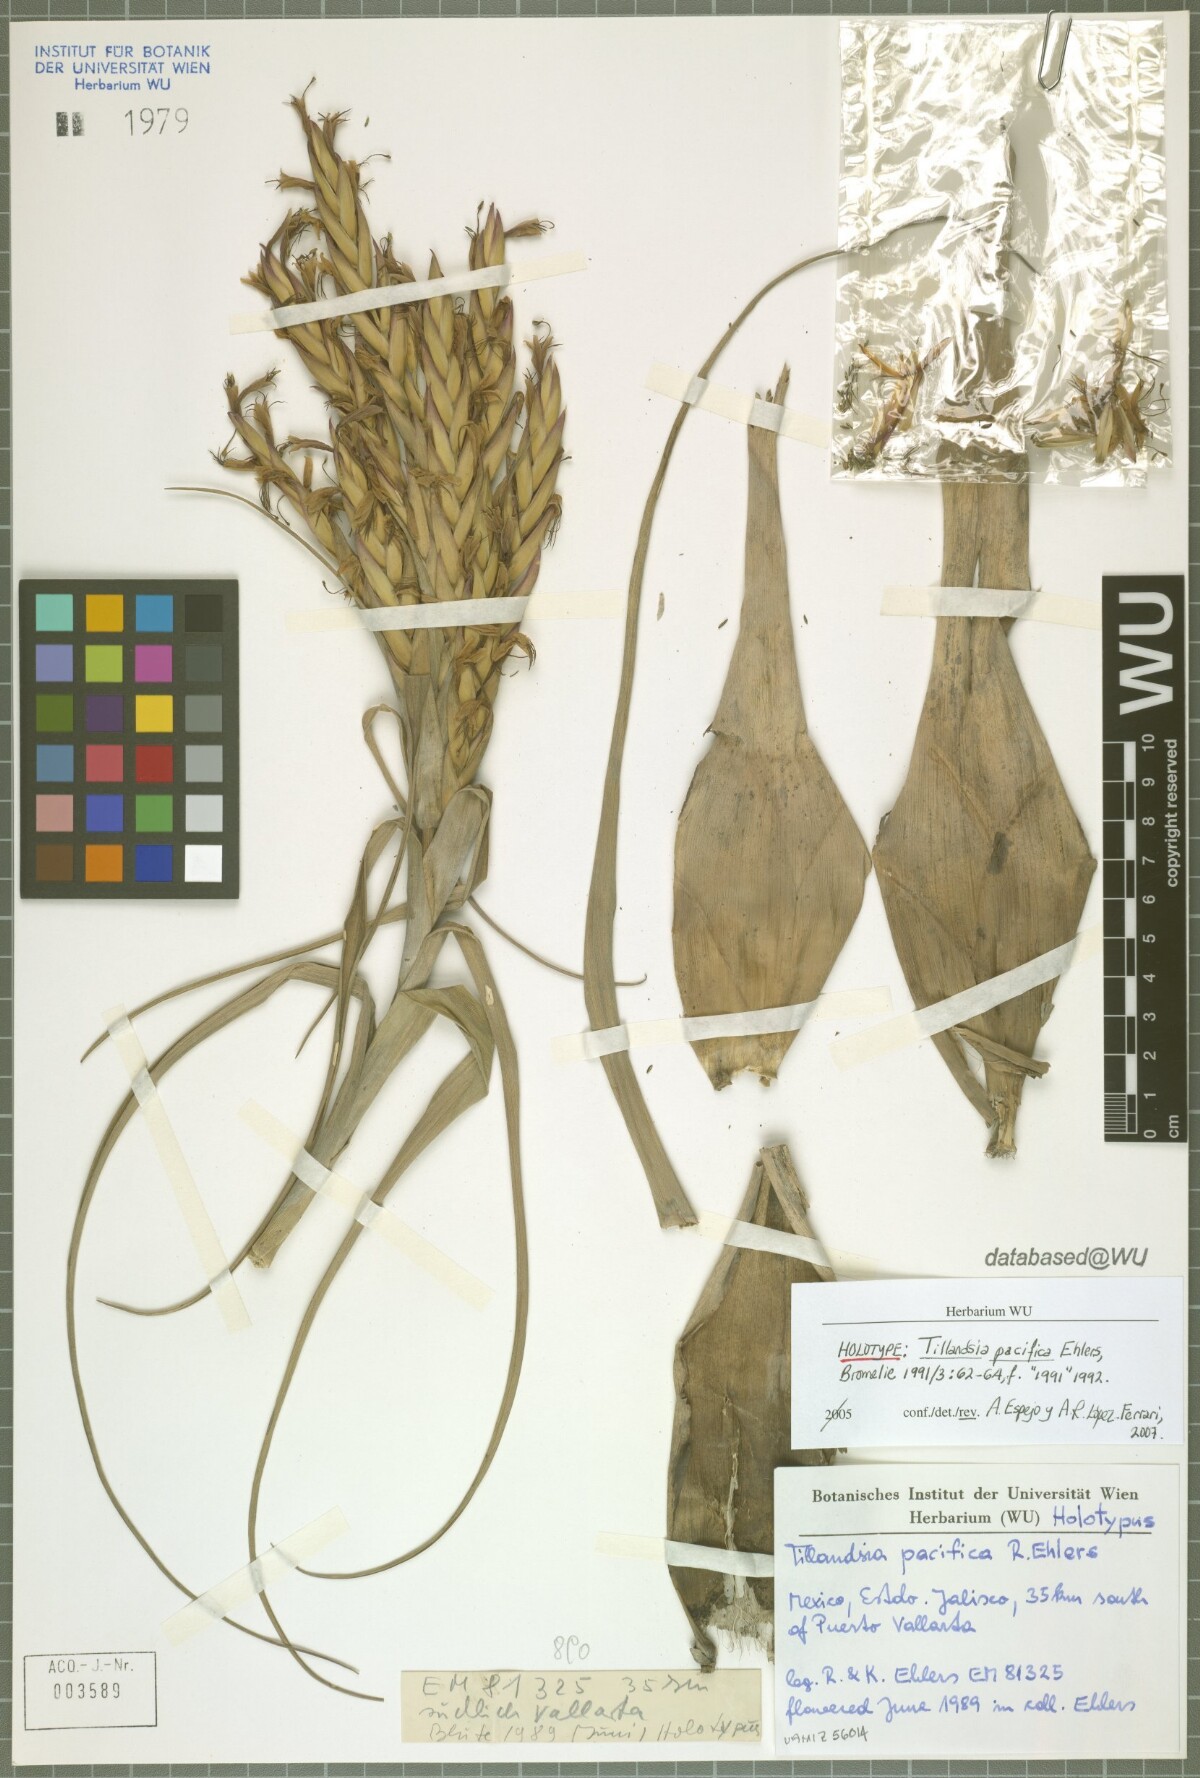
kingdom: Plantae
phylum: Tracheophyta
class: Liliopsida
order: Poales
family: Bromeliaceae
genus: Tillandsia
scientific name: Tillandsia pacifica
